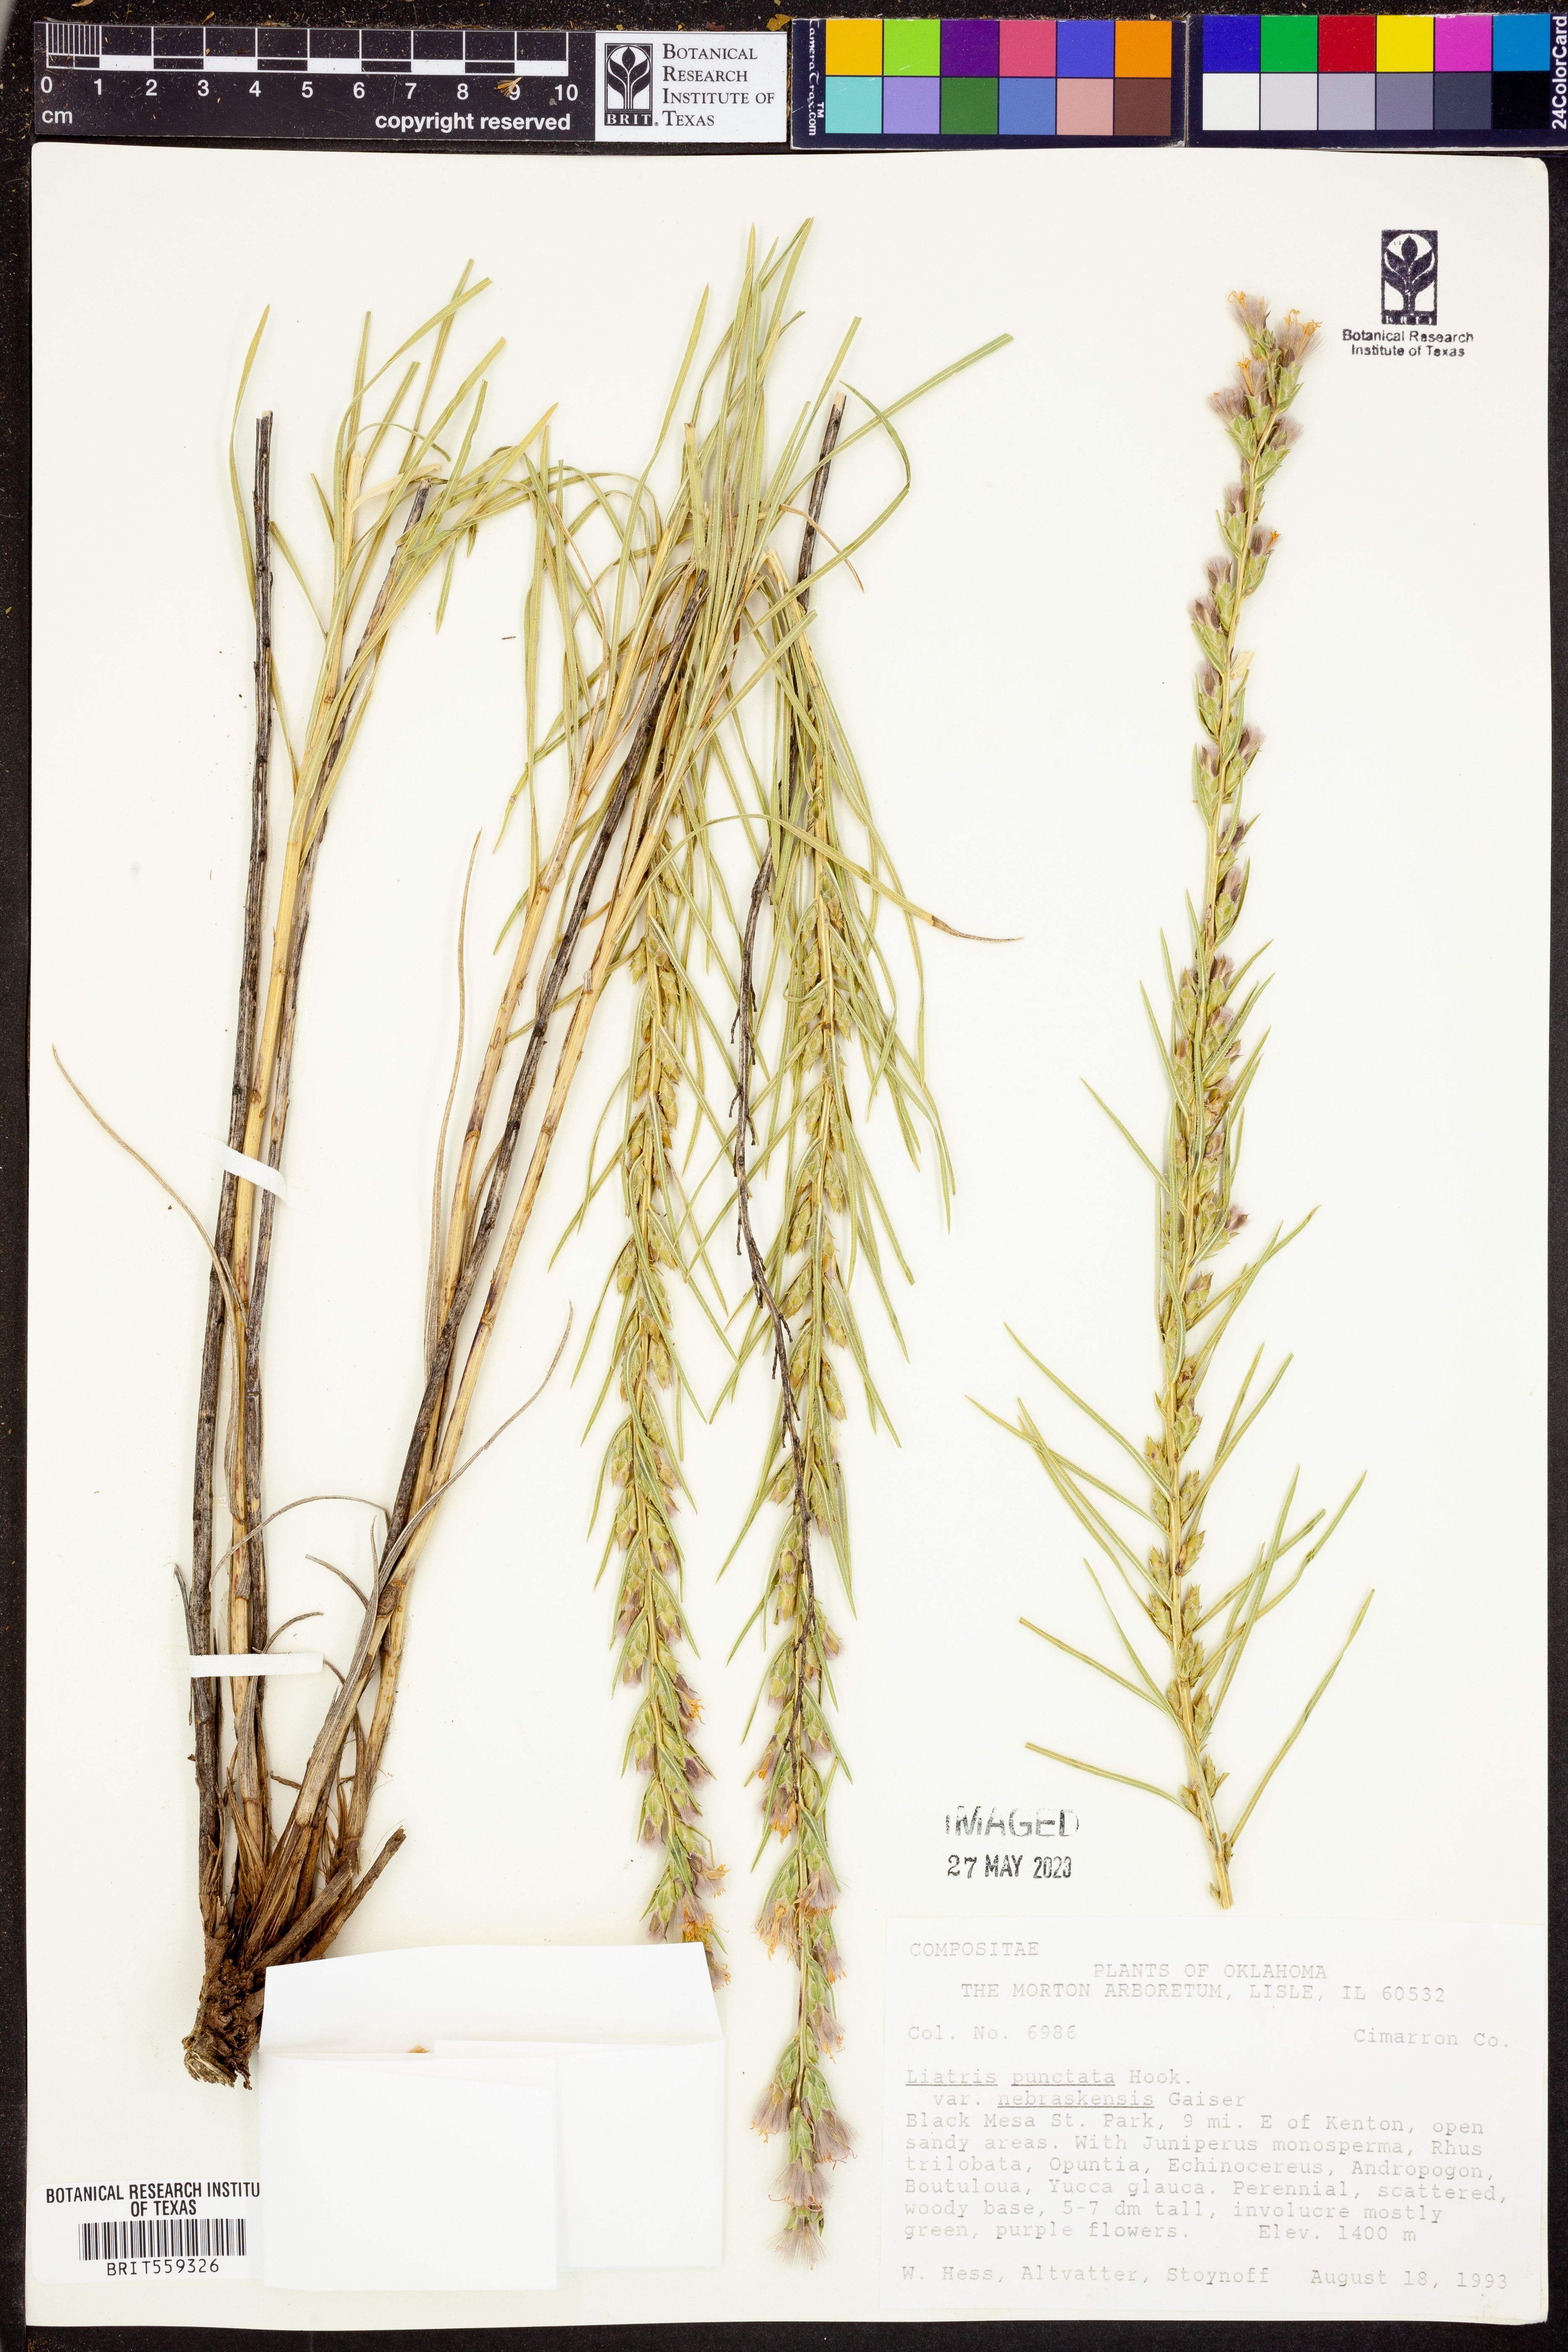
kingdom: Plantae
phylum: Tracheophyta
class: Magnoliopsida
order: Asterales
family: Asteraceae
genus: Liatris
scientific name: Liatris punctata
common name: Dotted gayfeather
